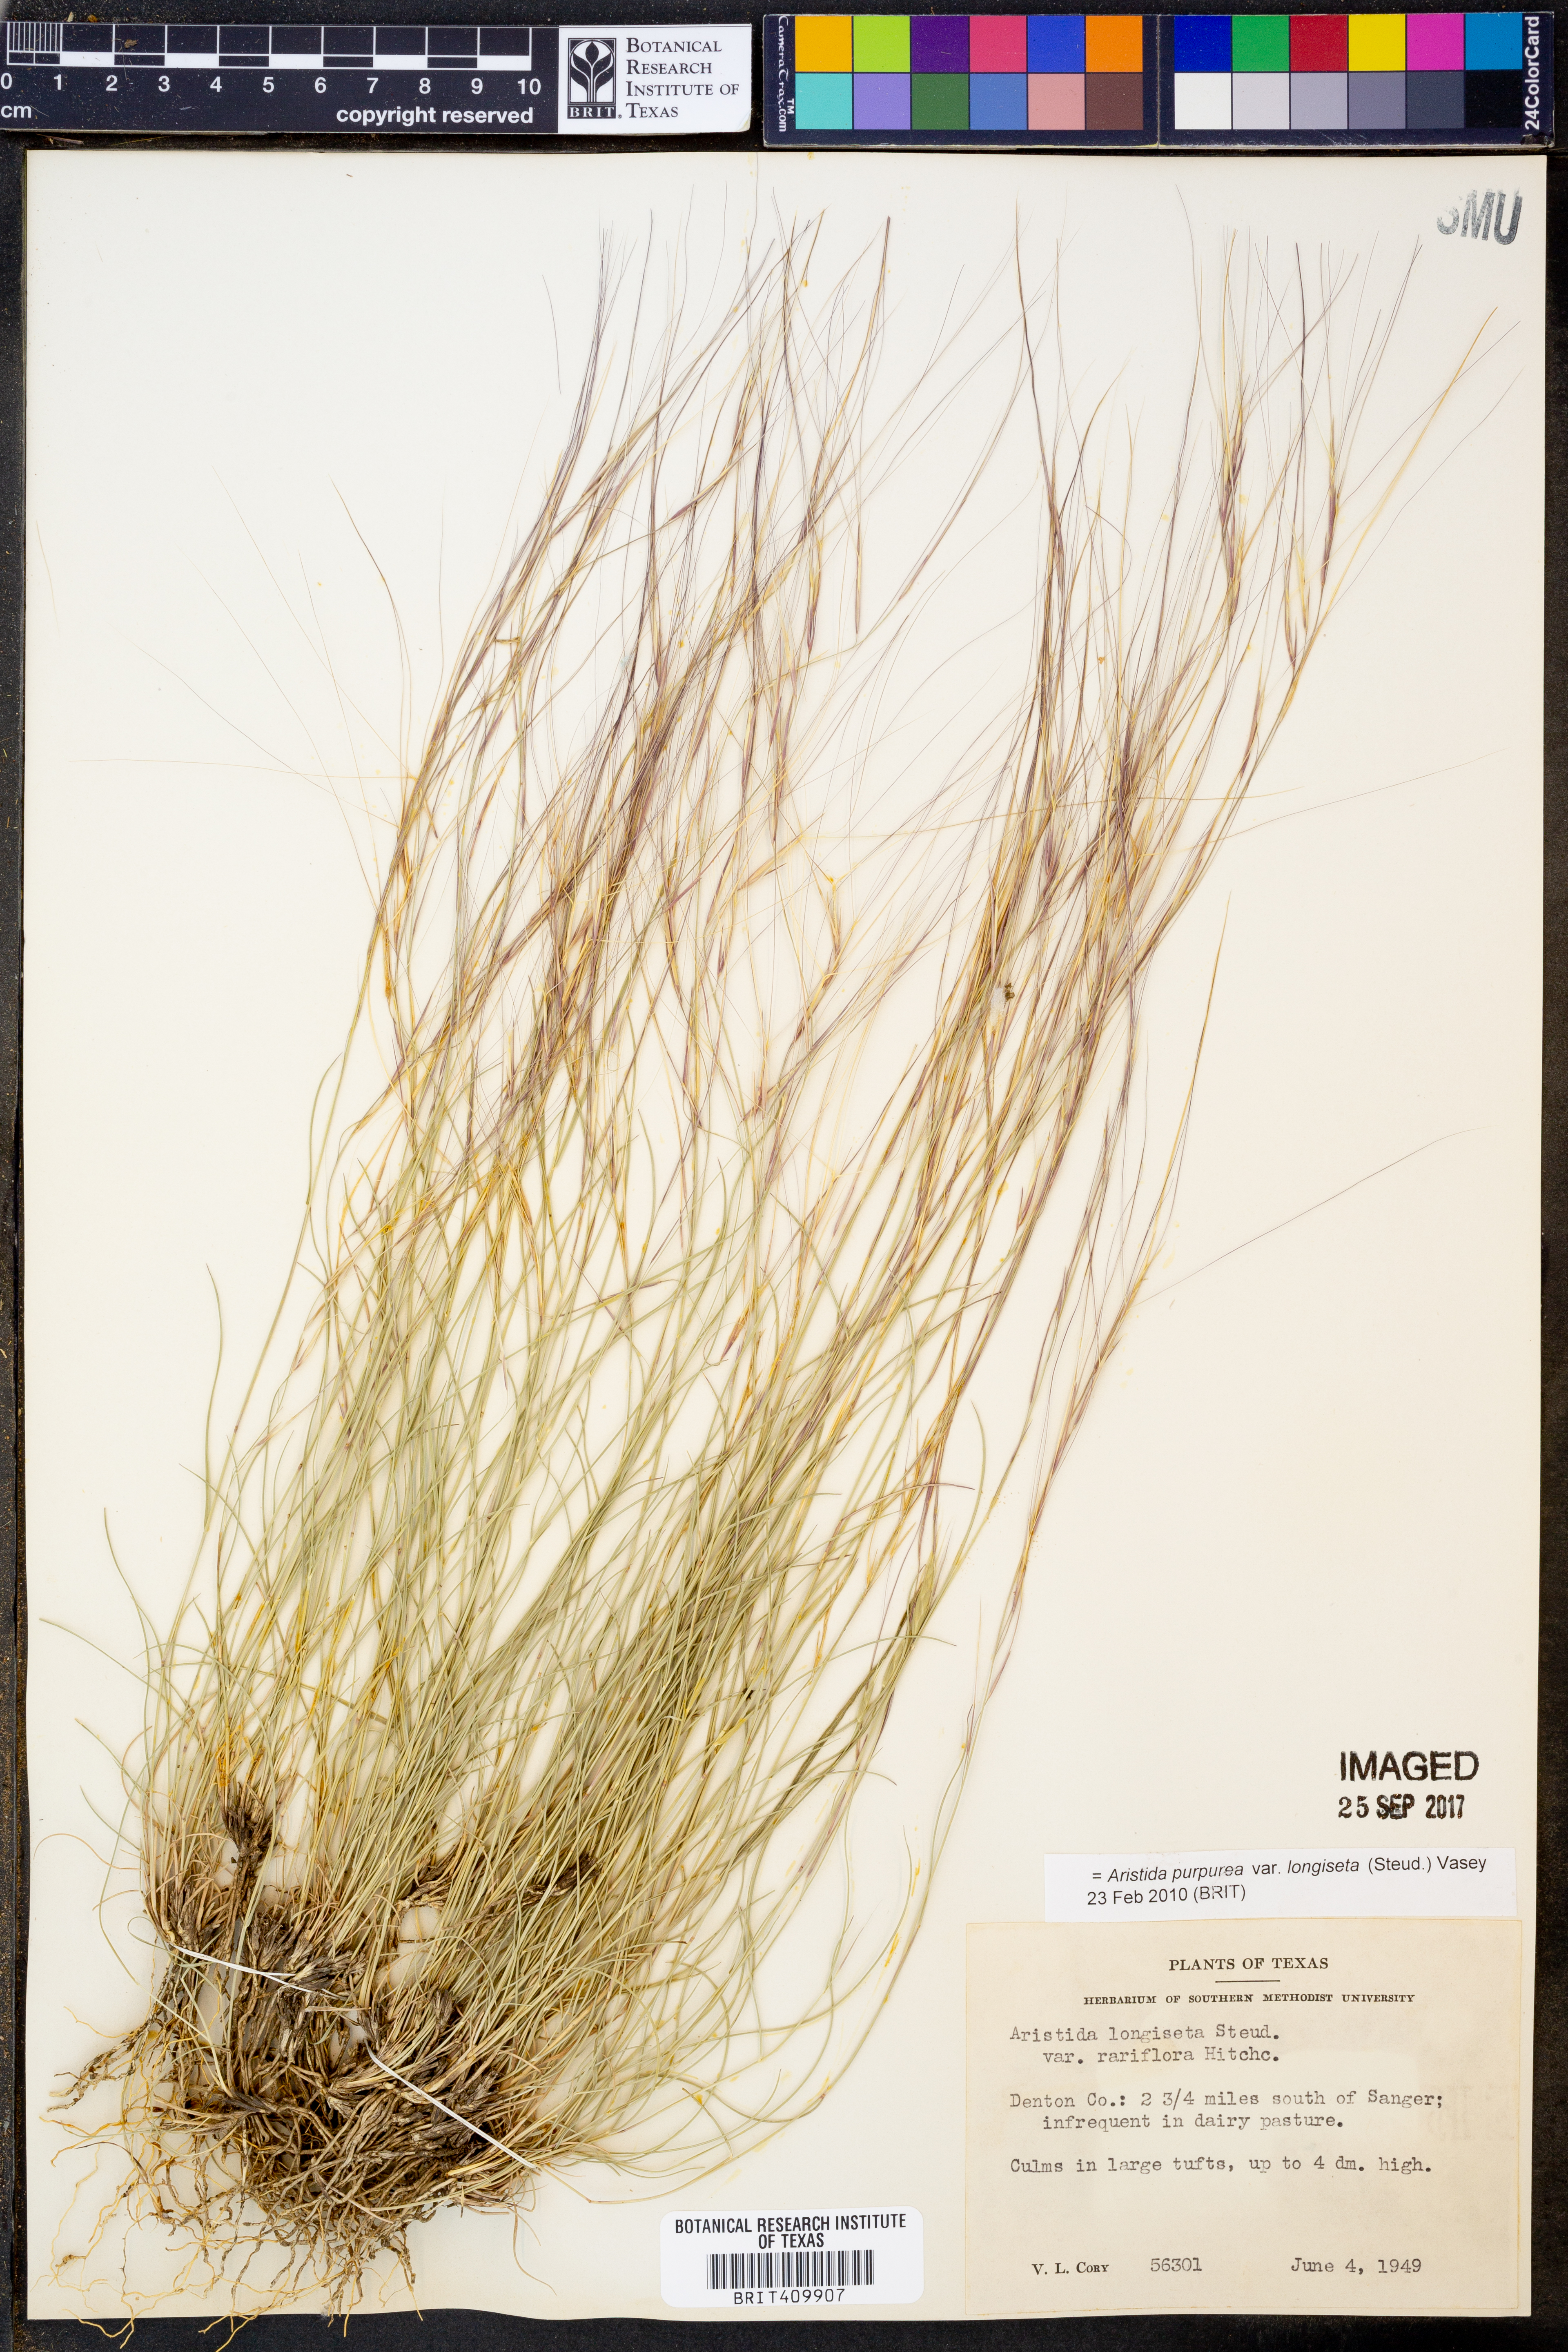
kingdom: Plantae
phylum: Tracheophyta
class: Liliopsida
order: Poales
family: Poaceae
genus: Aristida
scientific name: Aristida longiseta
